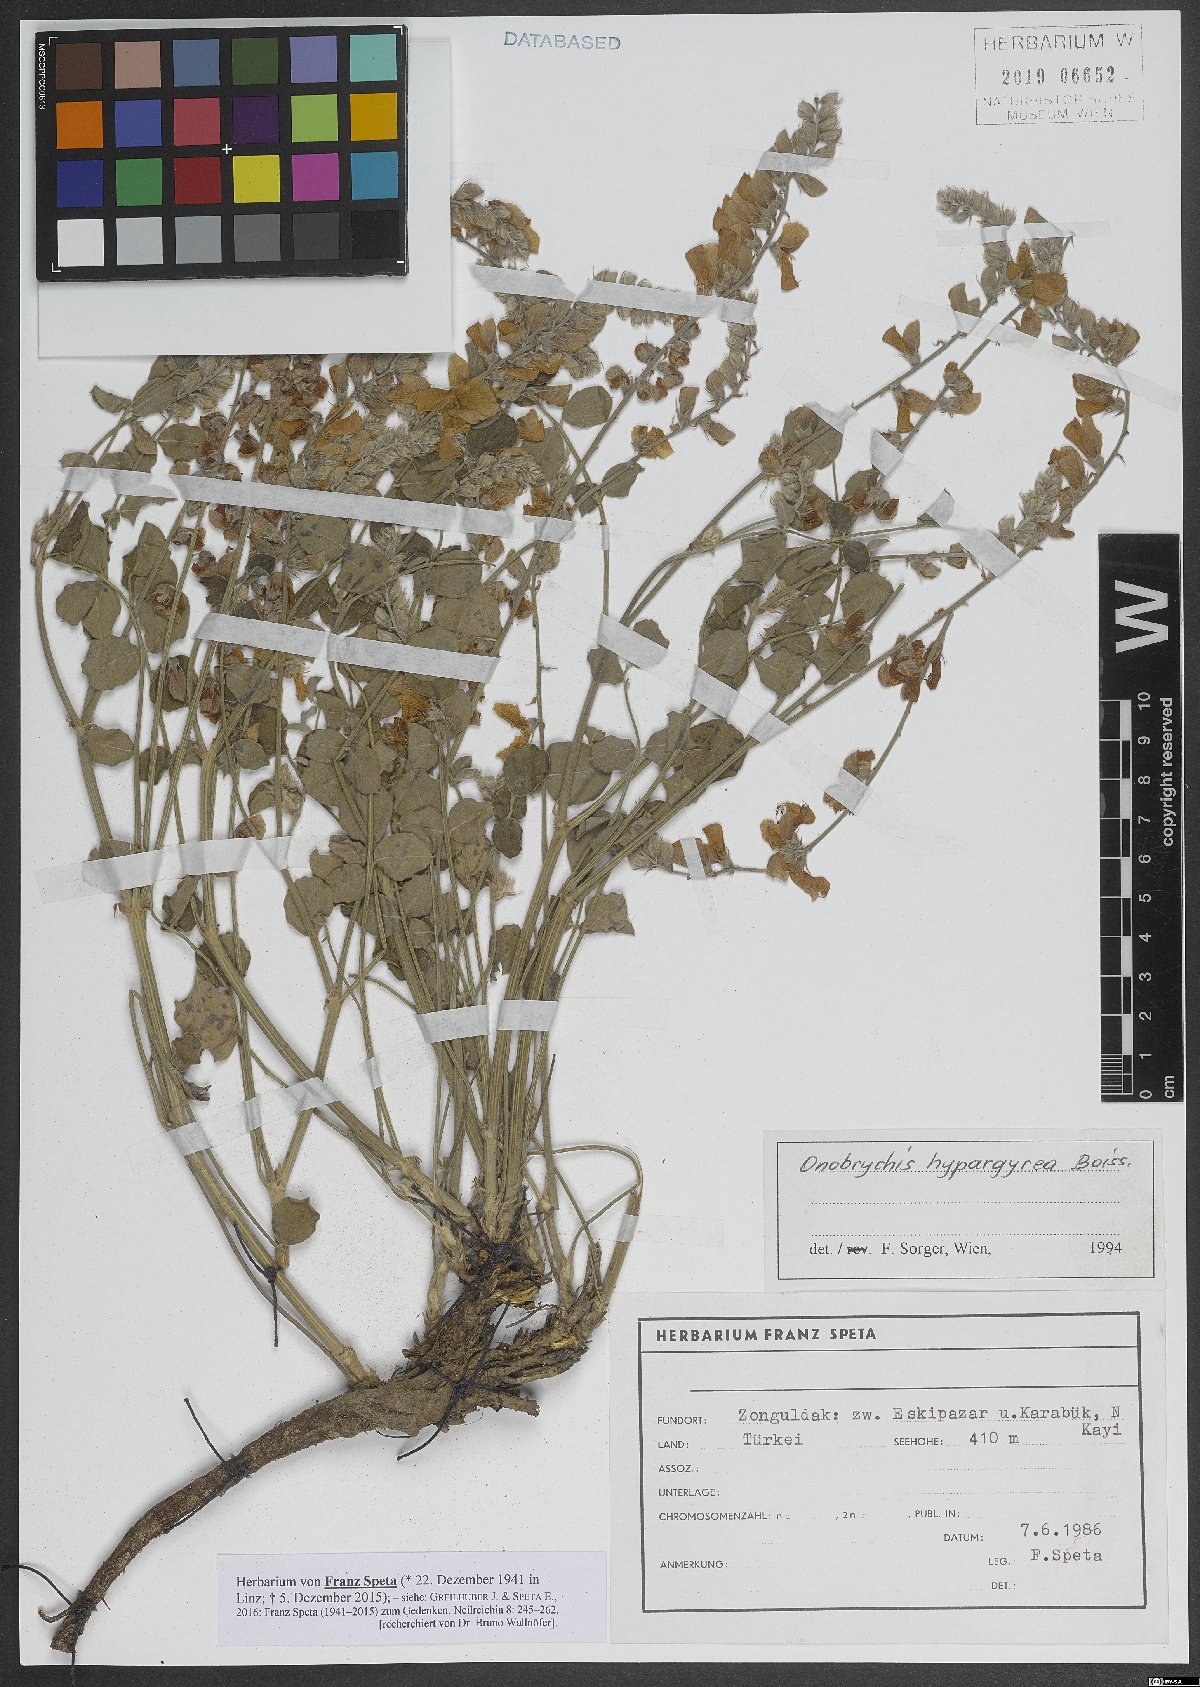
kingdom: Plantae
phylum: Tracheophyta
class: Magnoliopsida
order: Fabales
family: Fabaceae
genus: Onobrychis
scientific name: Onobrychis hypargyrea
